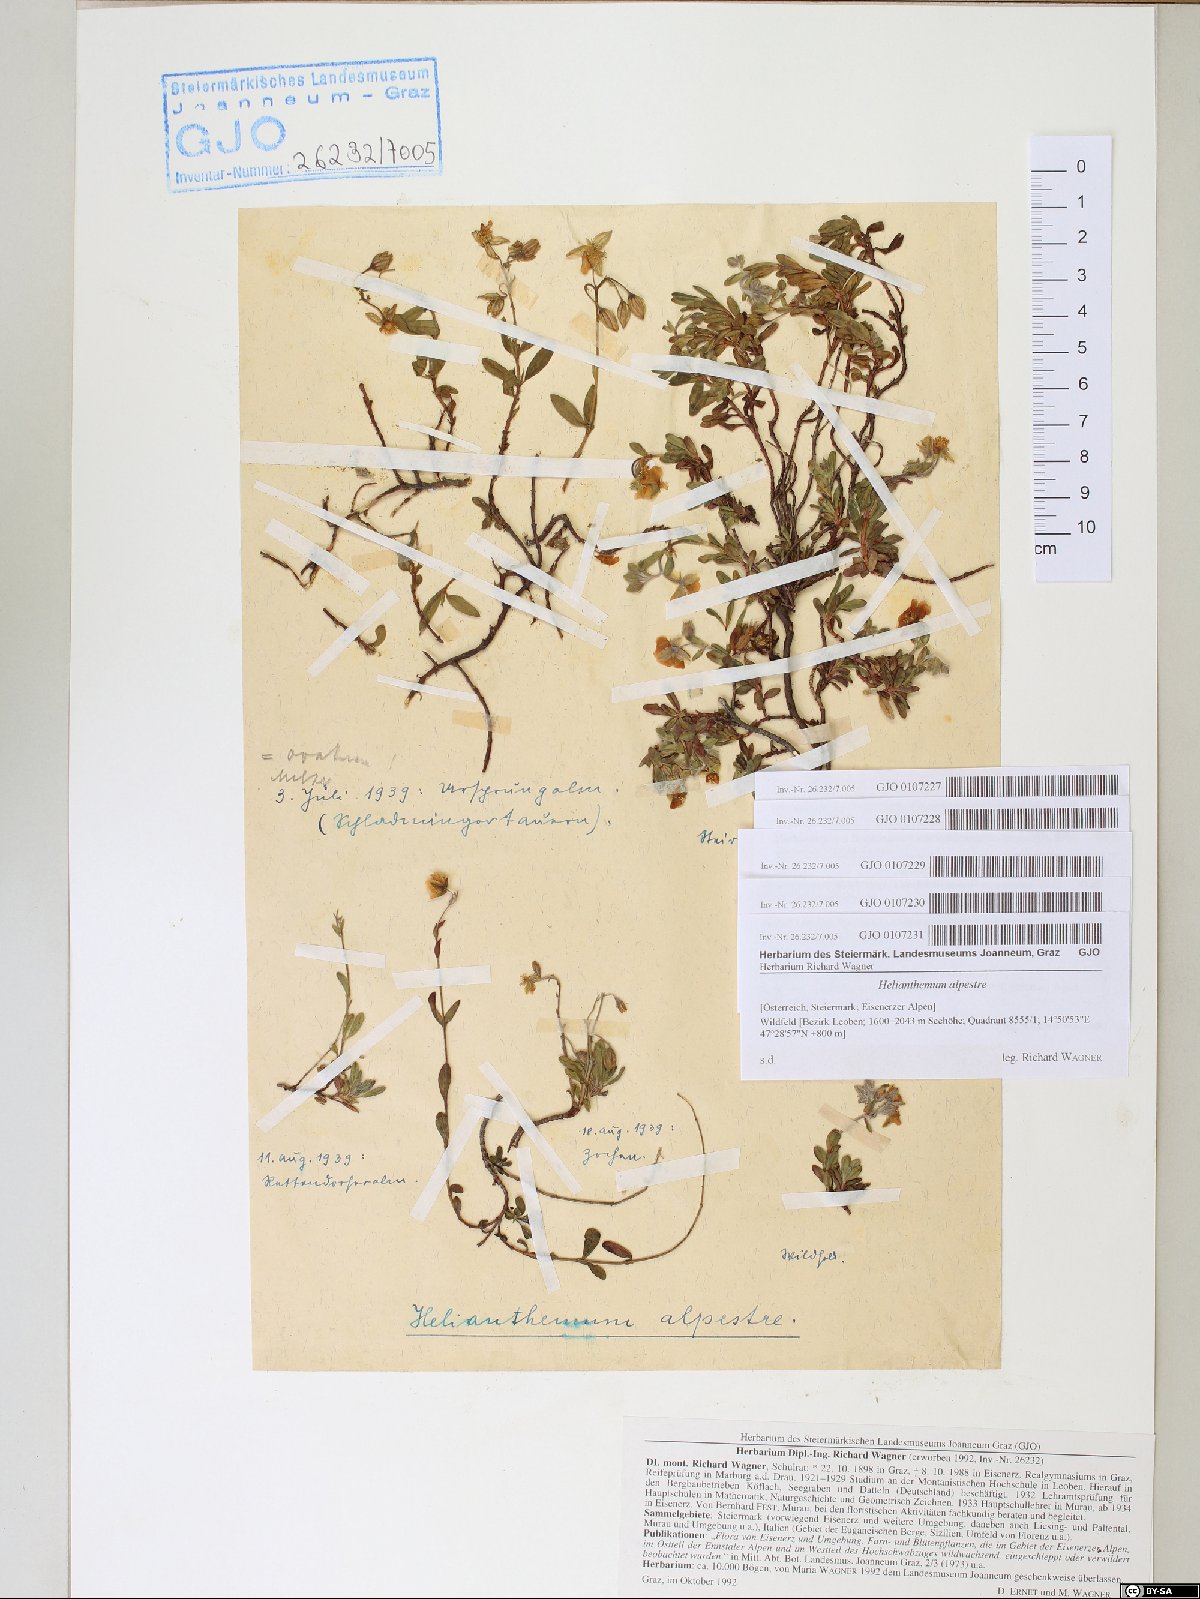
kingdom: Plantae
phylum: Tracheophyta
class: Magnoliopsida
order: Malvales
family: Cistaceae
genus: Helianthemum
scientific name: Helianthemum alpestre
